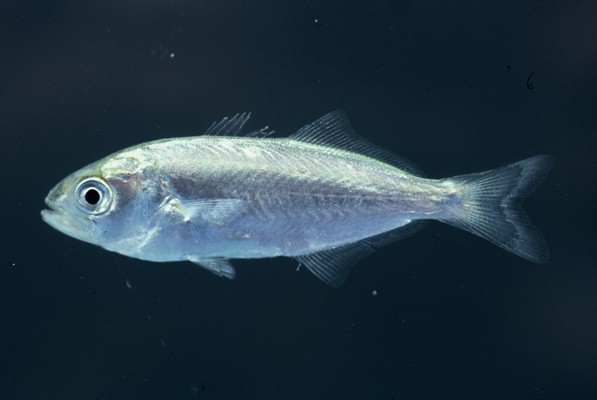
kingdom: Animalia
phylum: Chordata
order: Perciformes
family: Pomatomidae
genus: Pomatomus
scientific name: Pomatomus saltatrix
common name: Bluefish
